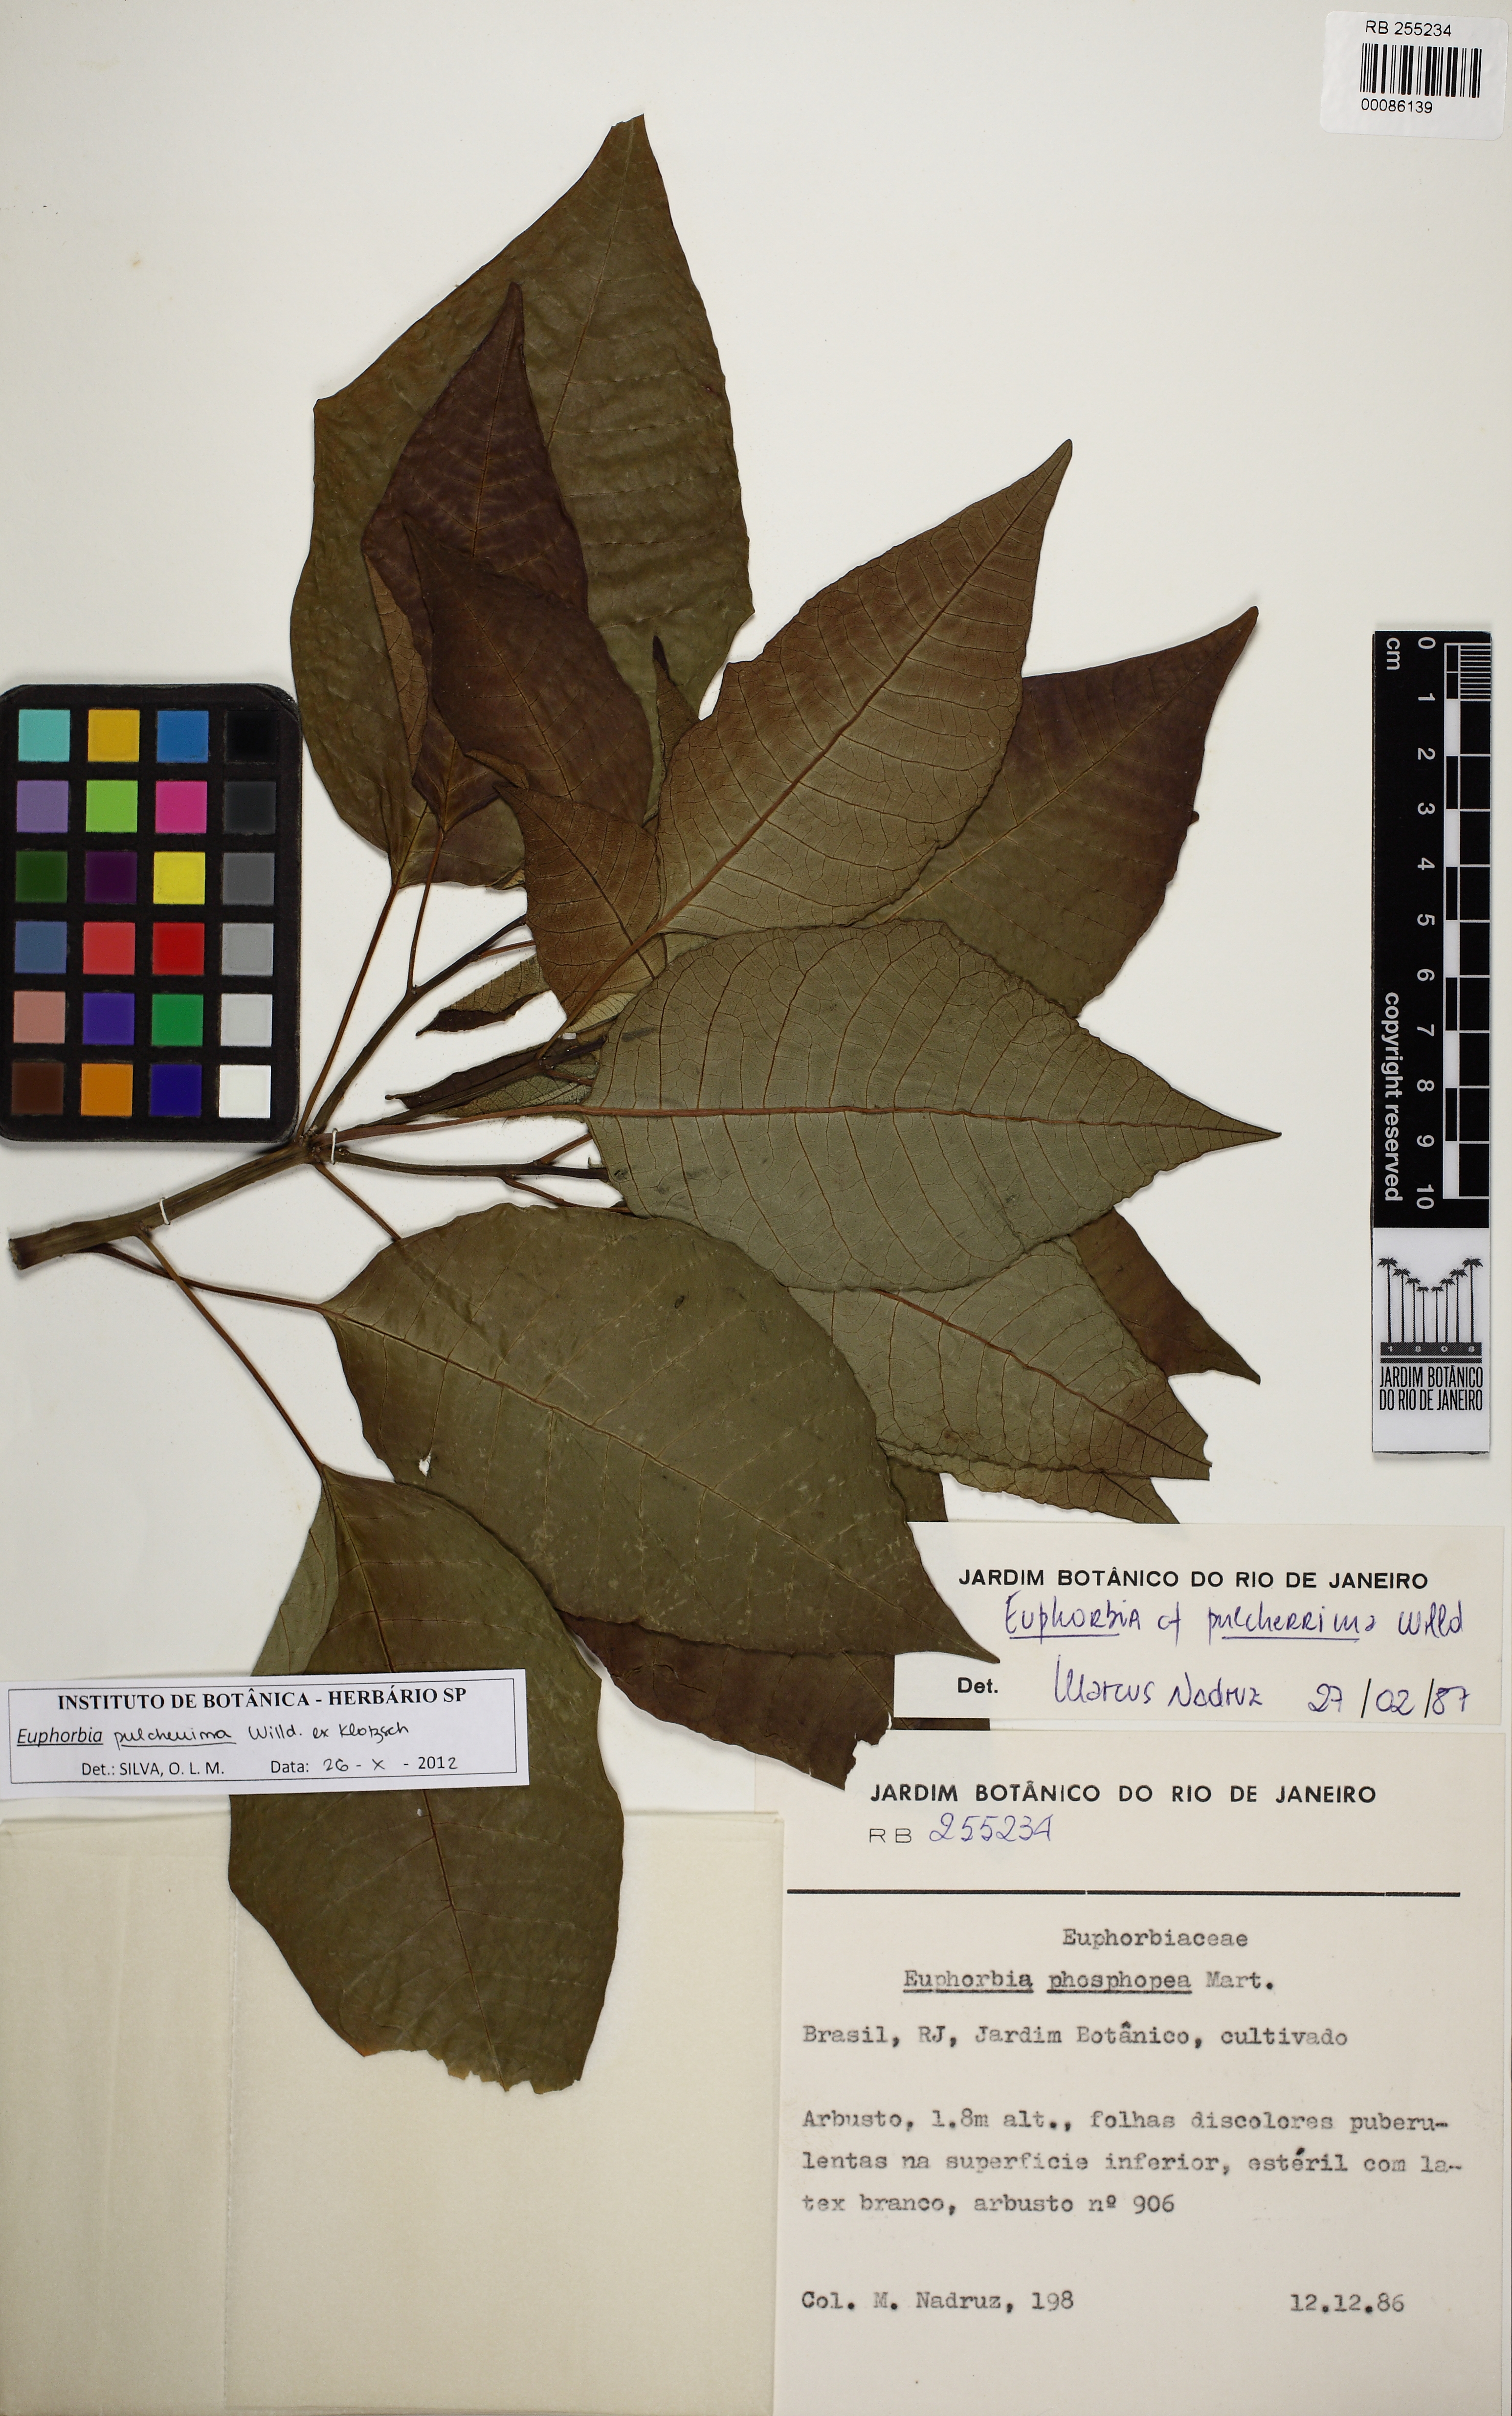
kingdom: Plantae
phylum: Tracheophyta
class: Magnoliopsida
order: Malpighiales
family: Euphorbiaceae
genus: Euphorbia
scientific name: Euphorbia pulcherrima
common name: Christmas-flower
